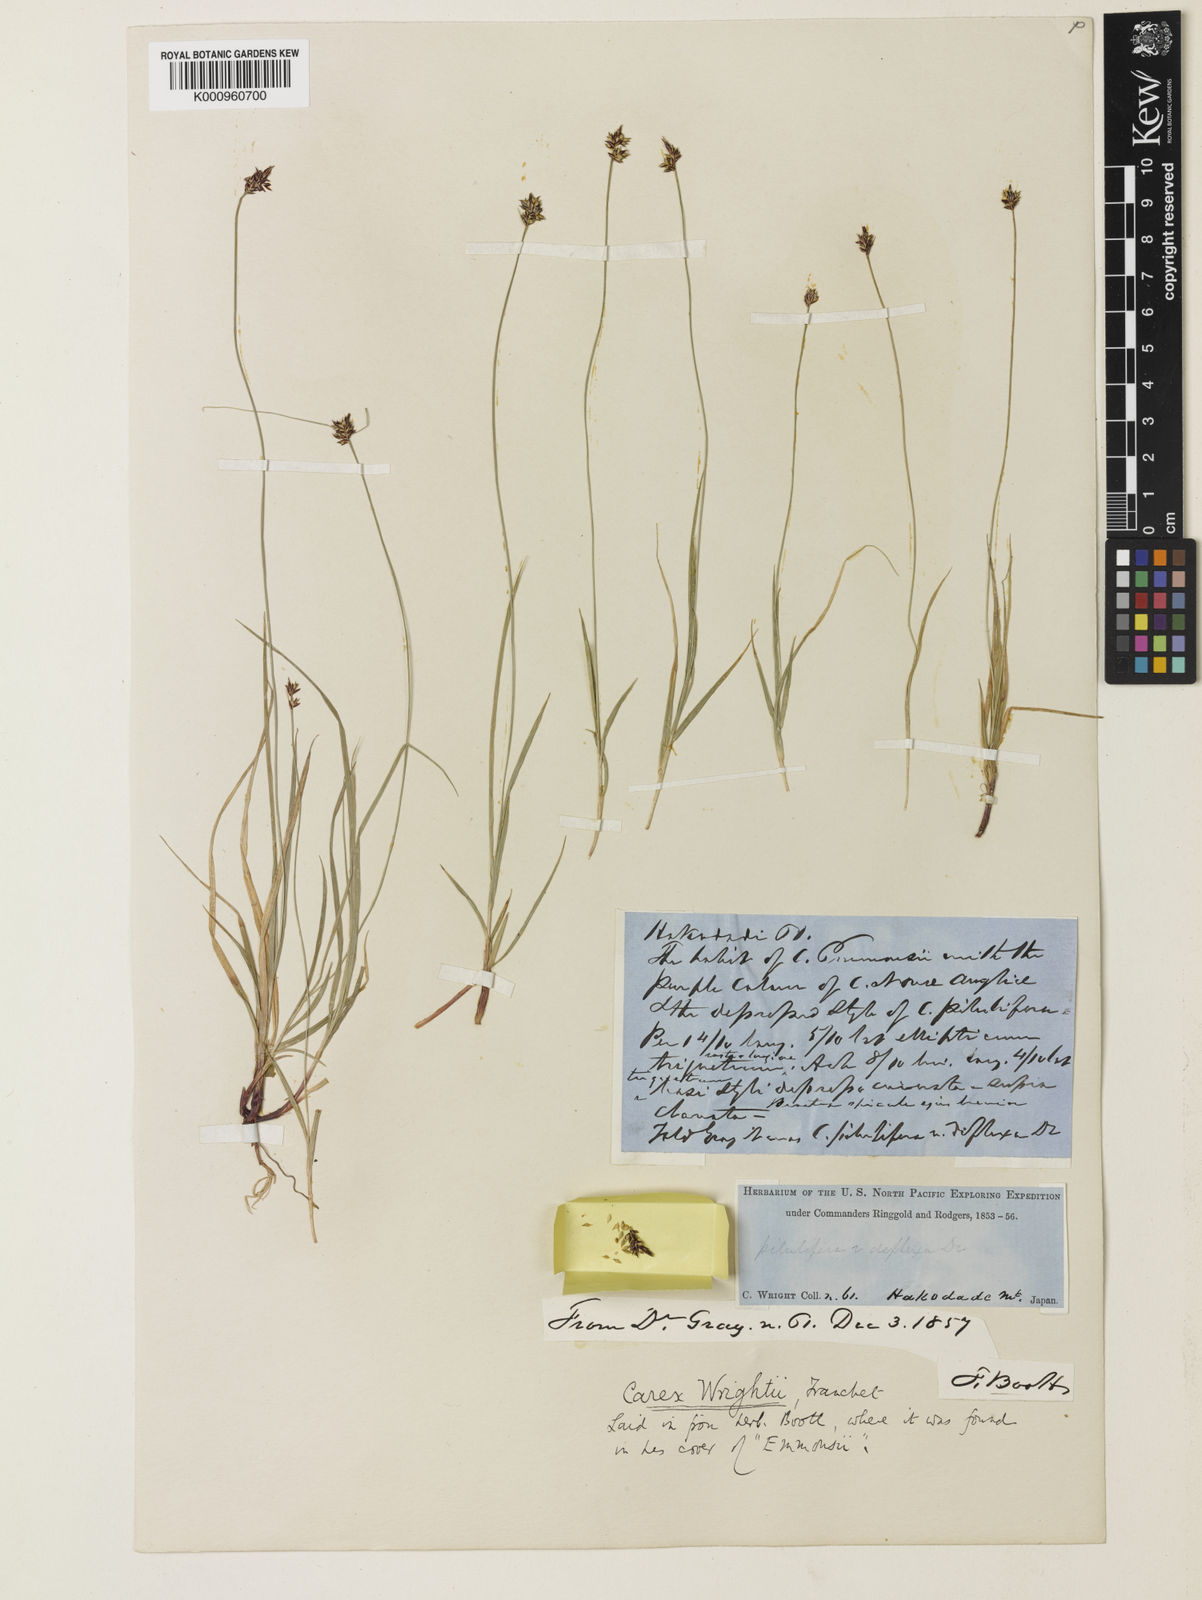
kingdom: Plantae
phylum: Tracheophyta
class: Liliopsida
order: Poales
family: Cyperaceae
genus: Carex
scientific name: Carex oxyandra
